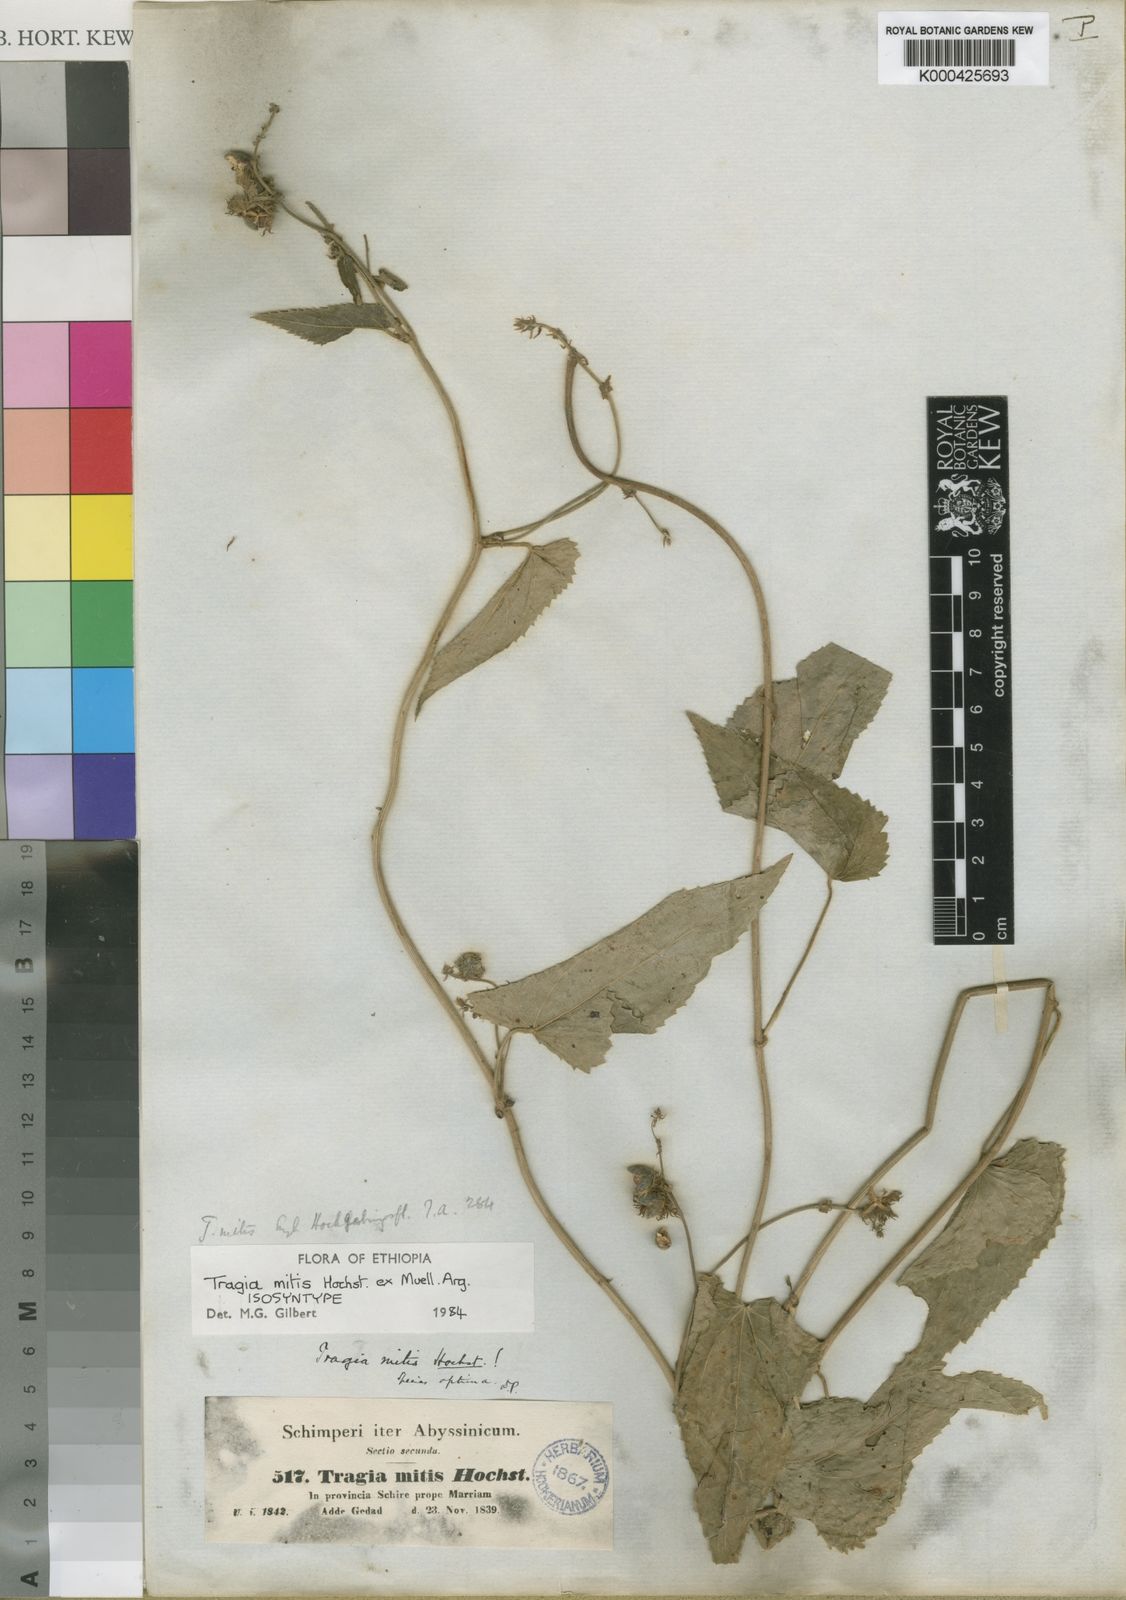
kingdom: Plantae
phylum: Tracheophyta
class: Magnoliopsida
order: Malpighiales
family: Euphorbiaceae
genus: Tragia
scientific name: Tragia
